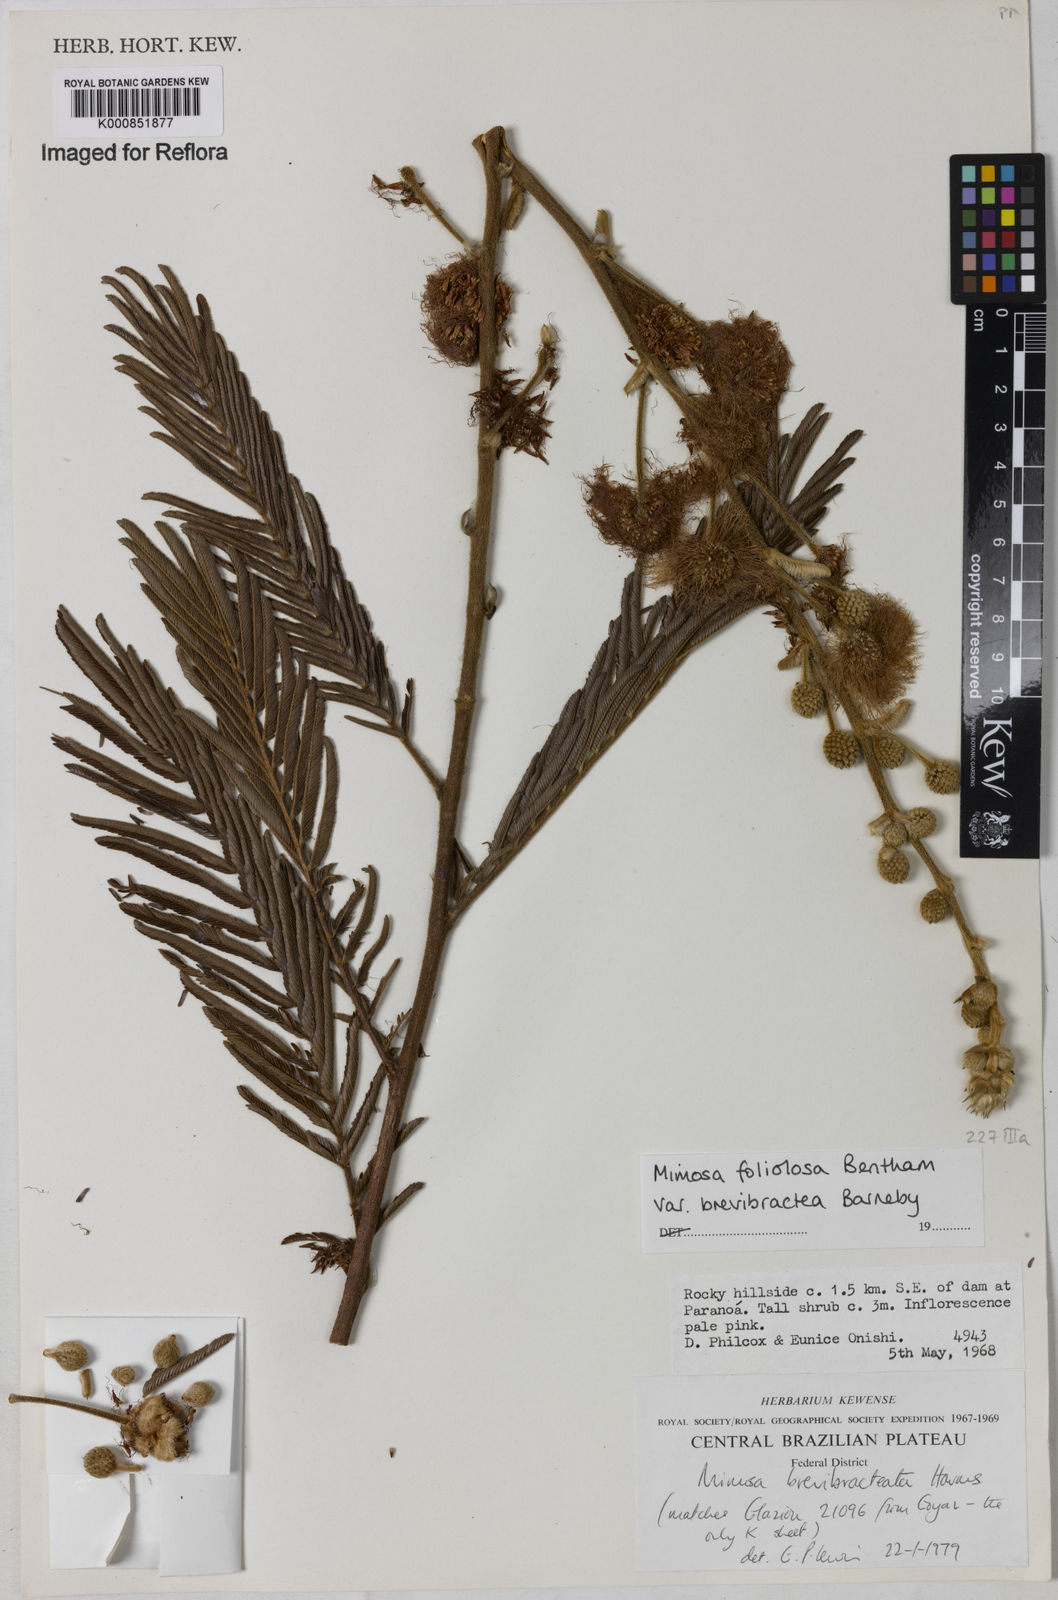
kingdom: Plantae
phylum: Tracheophyta
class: Magnoliopsida
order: Fabales
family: Fabaceae
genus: Mimosa
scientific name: Mimosa foliolosa
